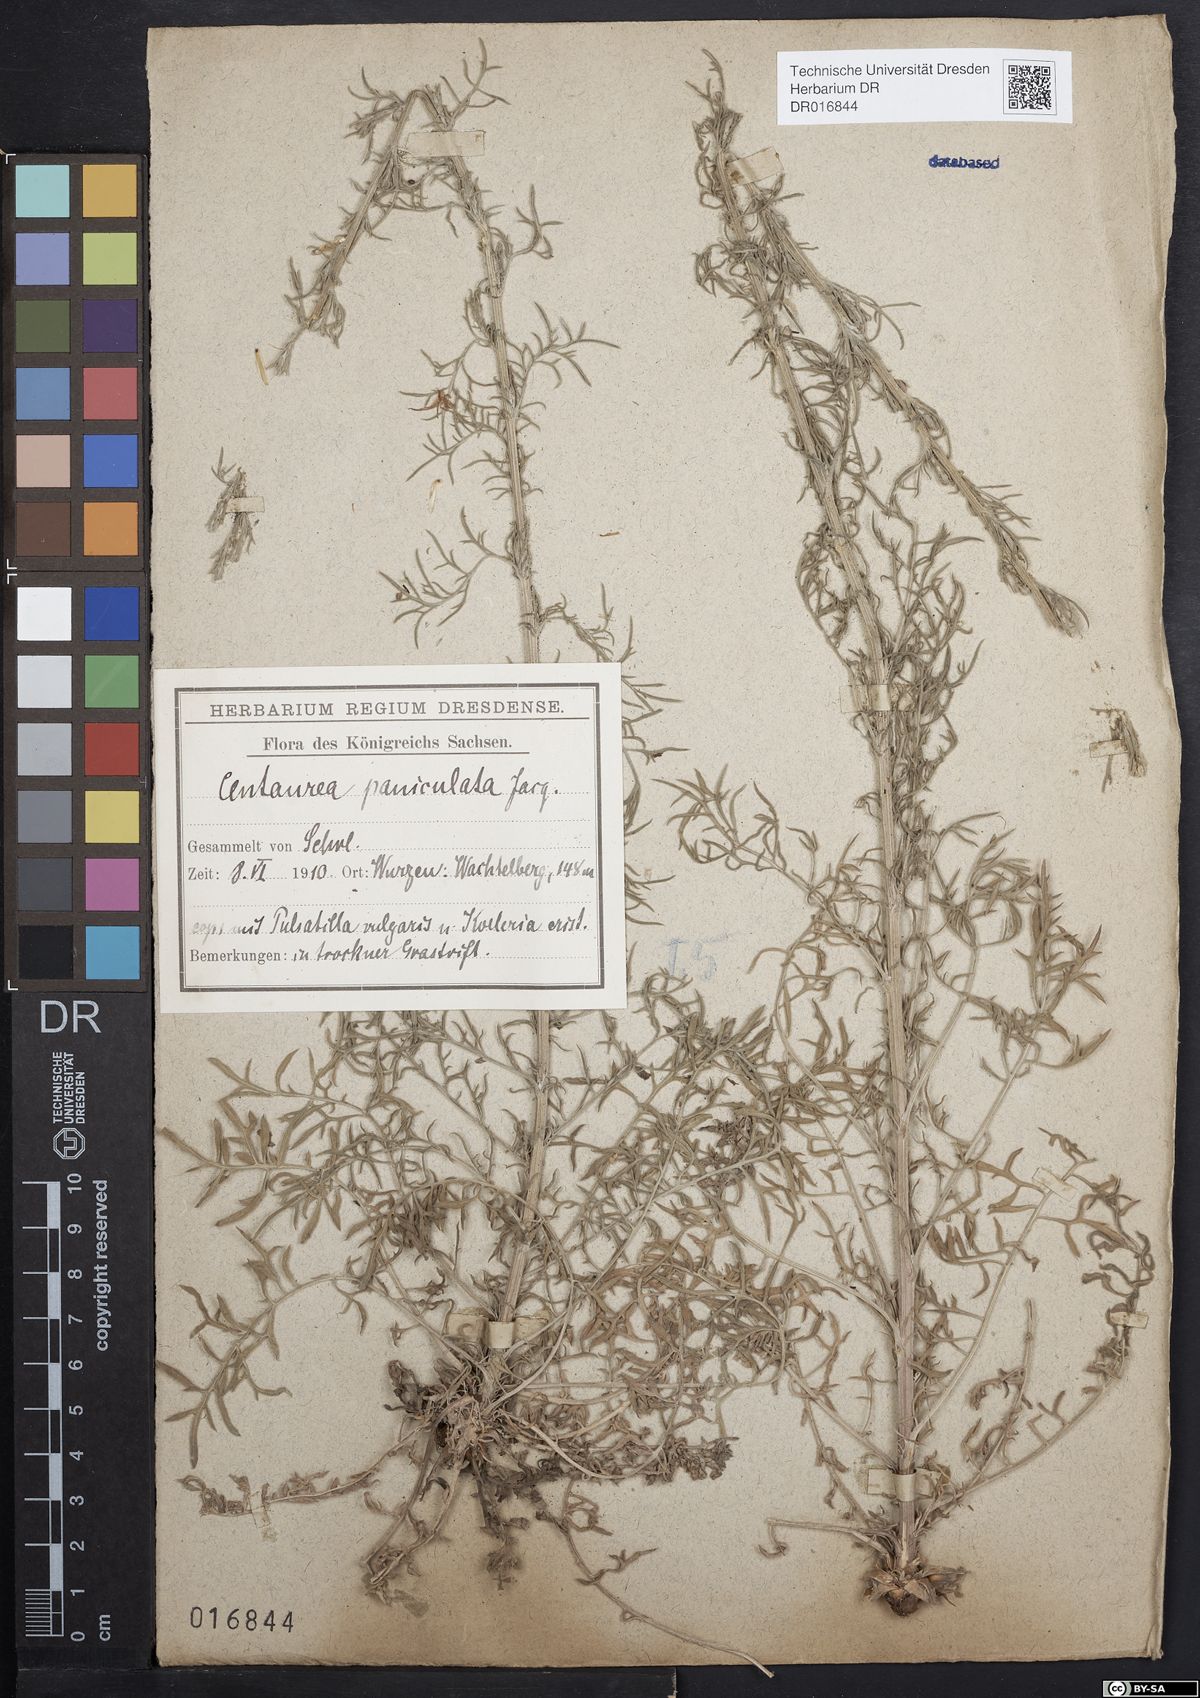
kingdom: Plantae
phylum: Tracheophyta
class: Magnoliopsida
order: Asterales
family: Asteraceae
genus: Centaurea
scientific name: Centaurea stoebe
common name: Spotted knapweed
